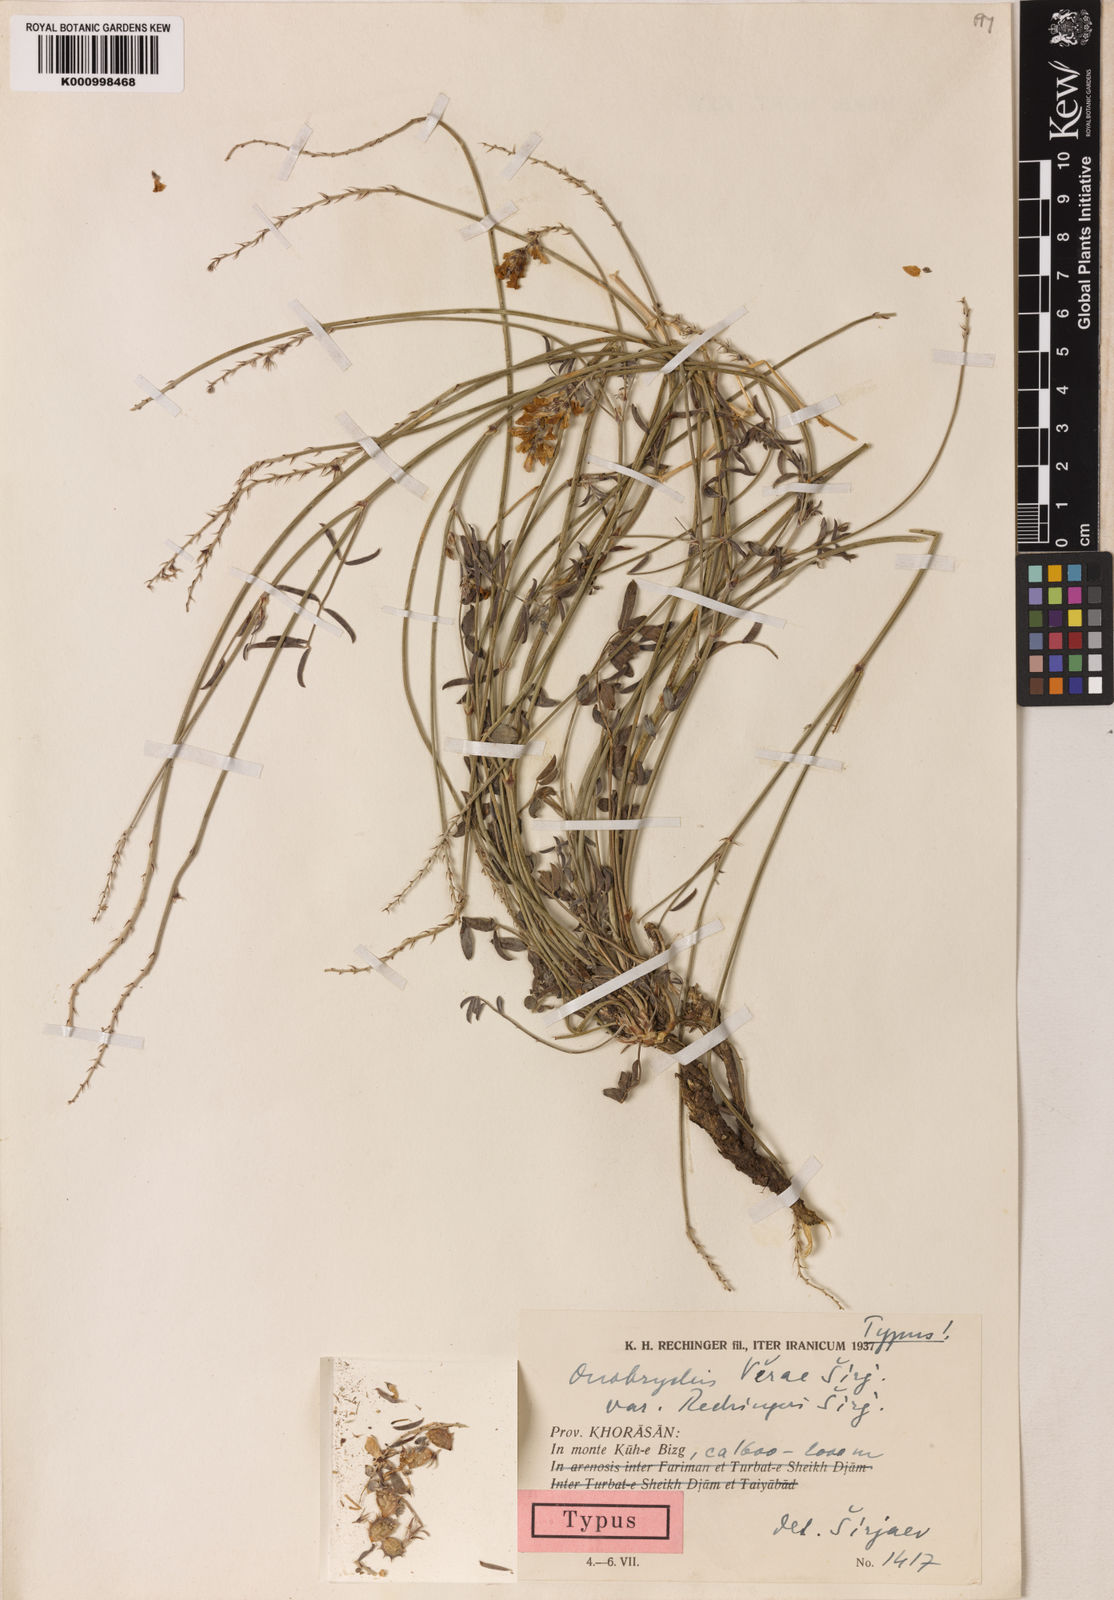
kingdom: Plantae
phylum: Tracheophyta
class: Magnoliopsida
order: Fabales
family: Fabaceae
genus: Onobrychis
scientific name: Onobrychis
